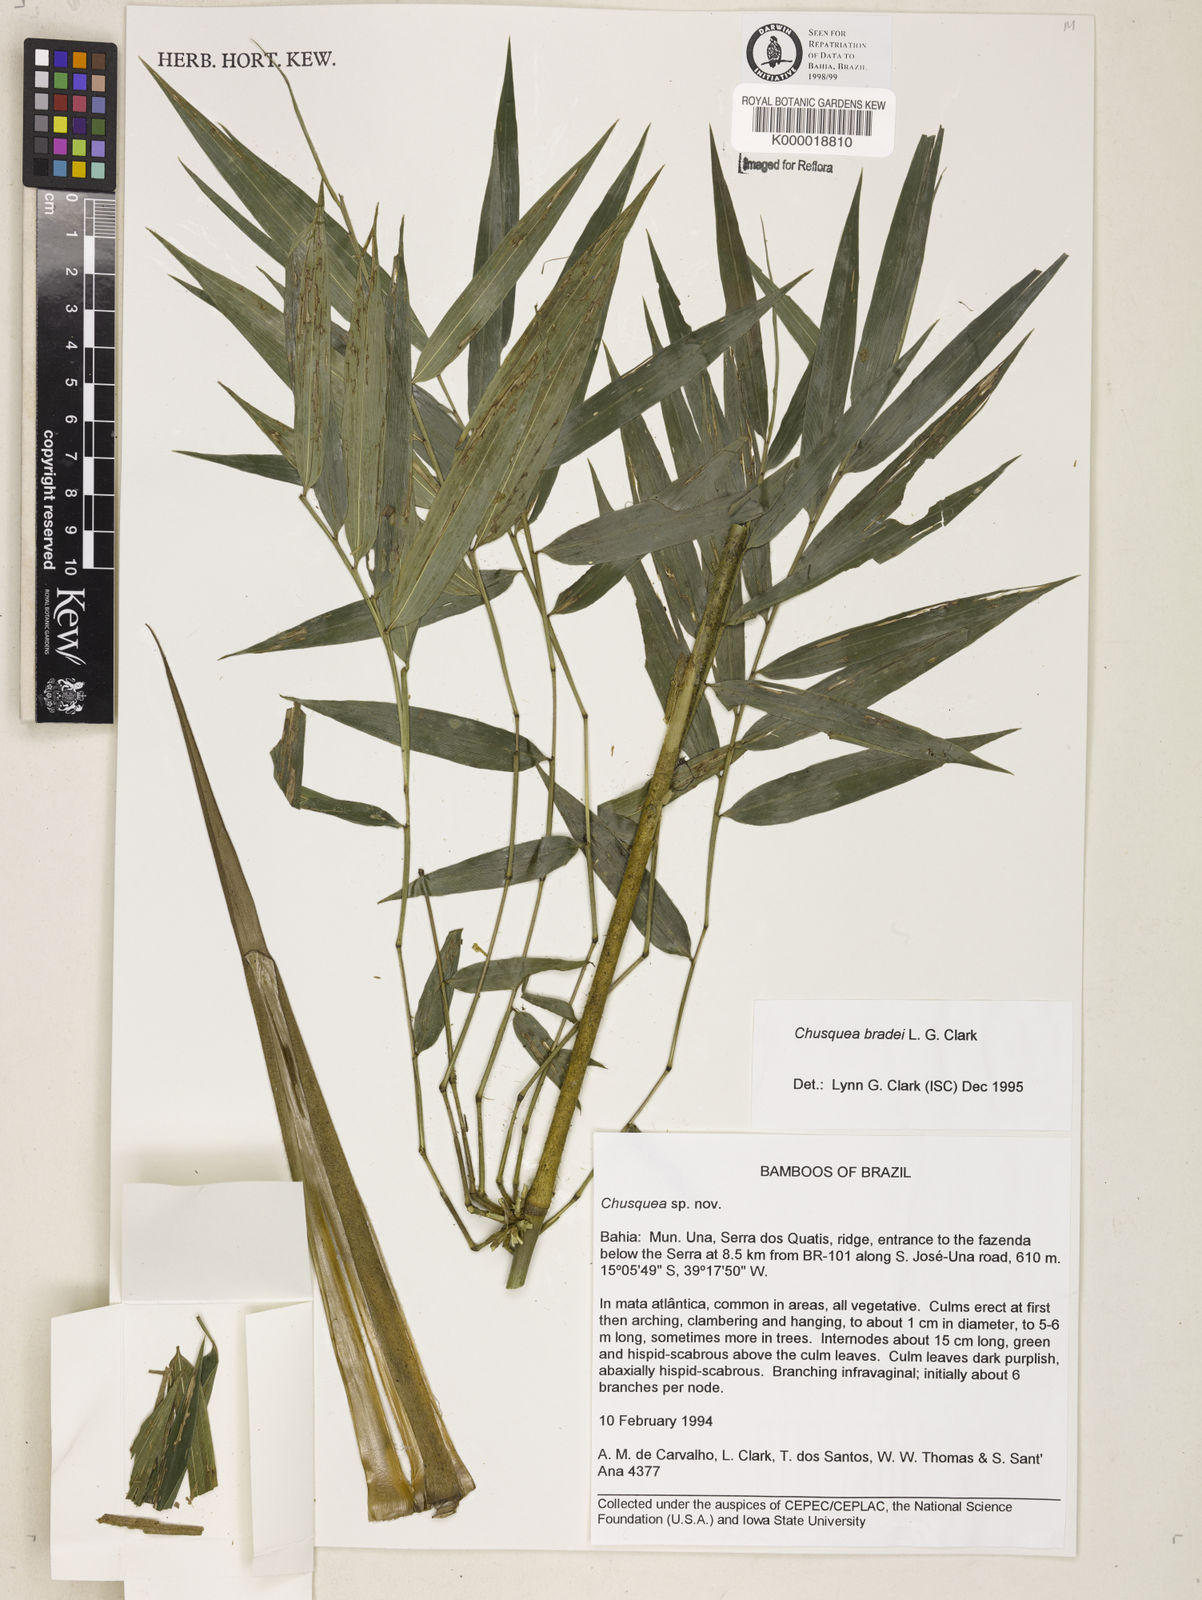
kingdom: Plantae
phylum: Tracheophyta
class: Liliopsida
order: Poales
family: Poaceae
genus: Chusquea
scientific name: Chusquea bradei
